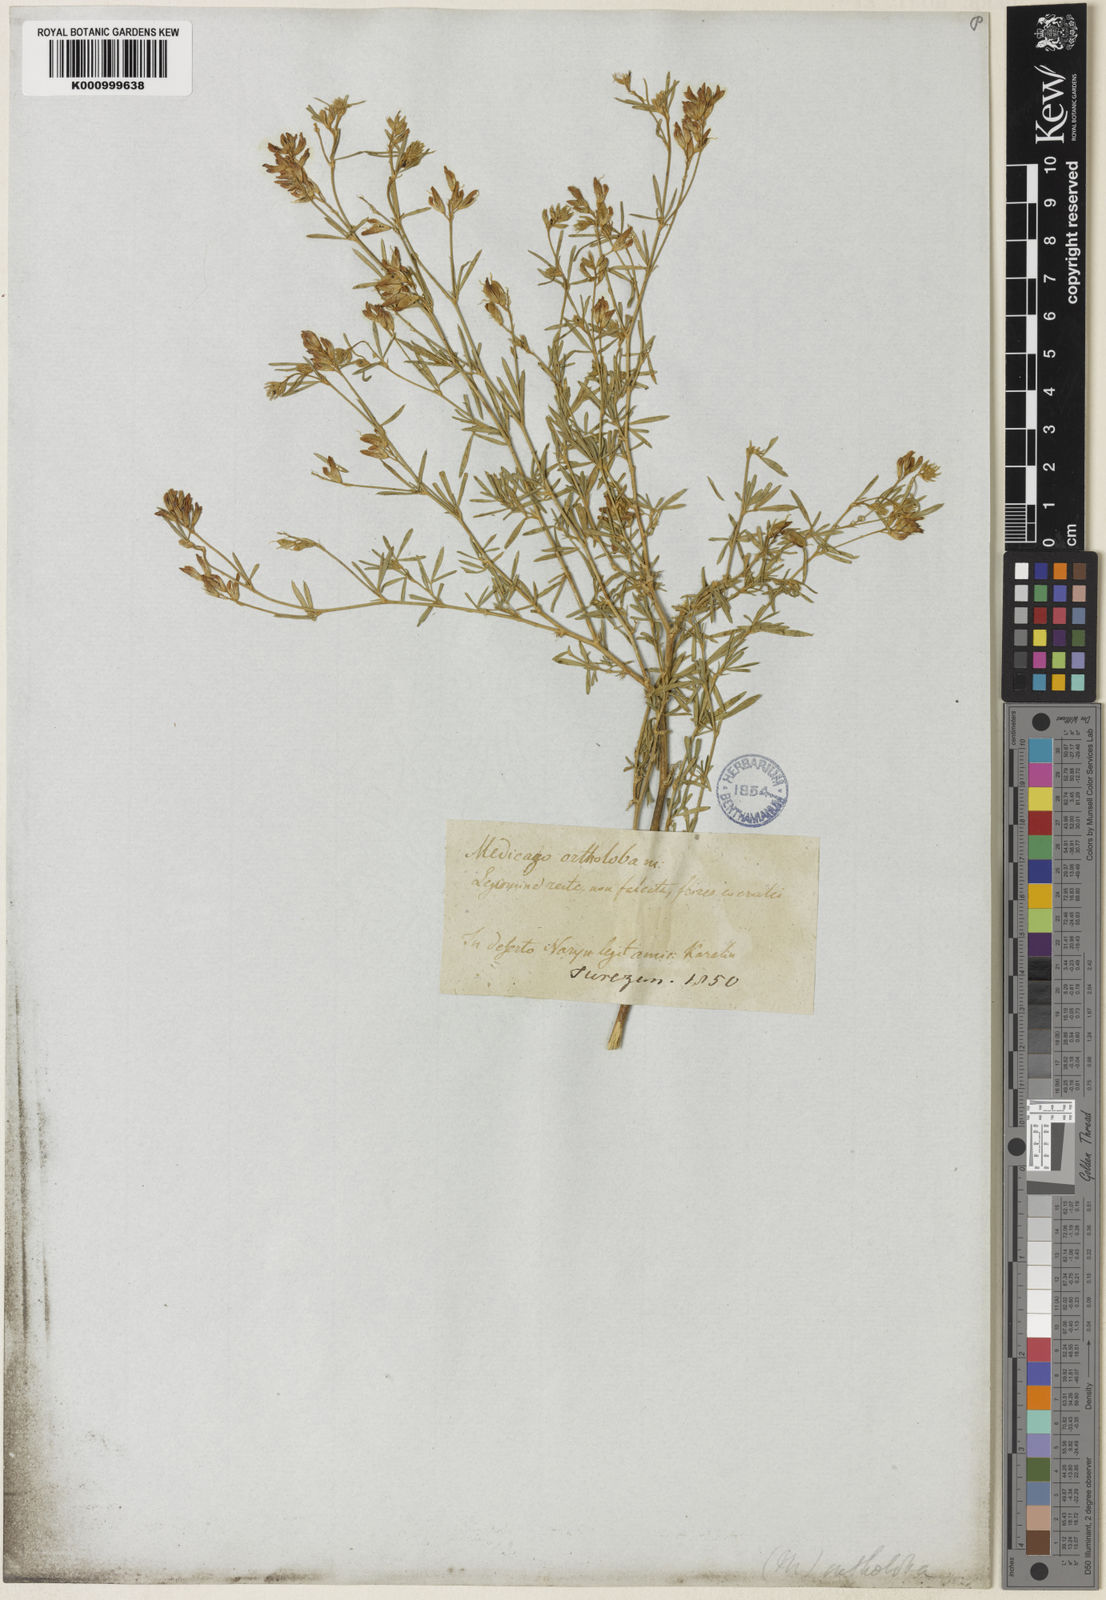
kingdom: Plantae
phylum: Tracheophyta
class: Magnoliopsida
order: Fabales
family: Fabaceae
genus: Medicago
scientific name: Medicago sativa
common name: Alfalfa
